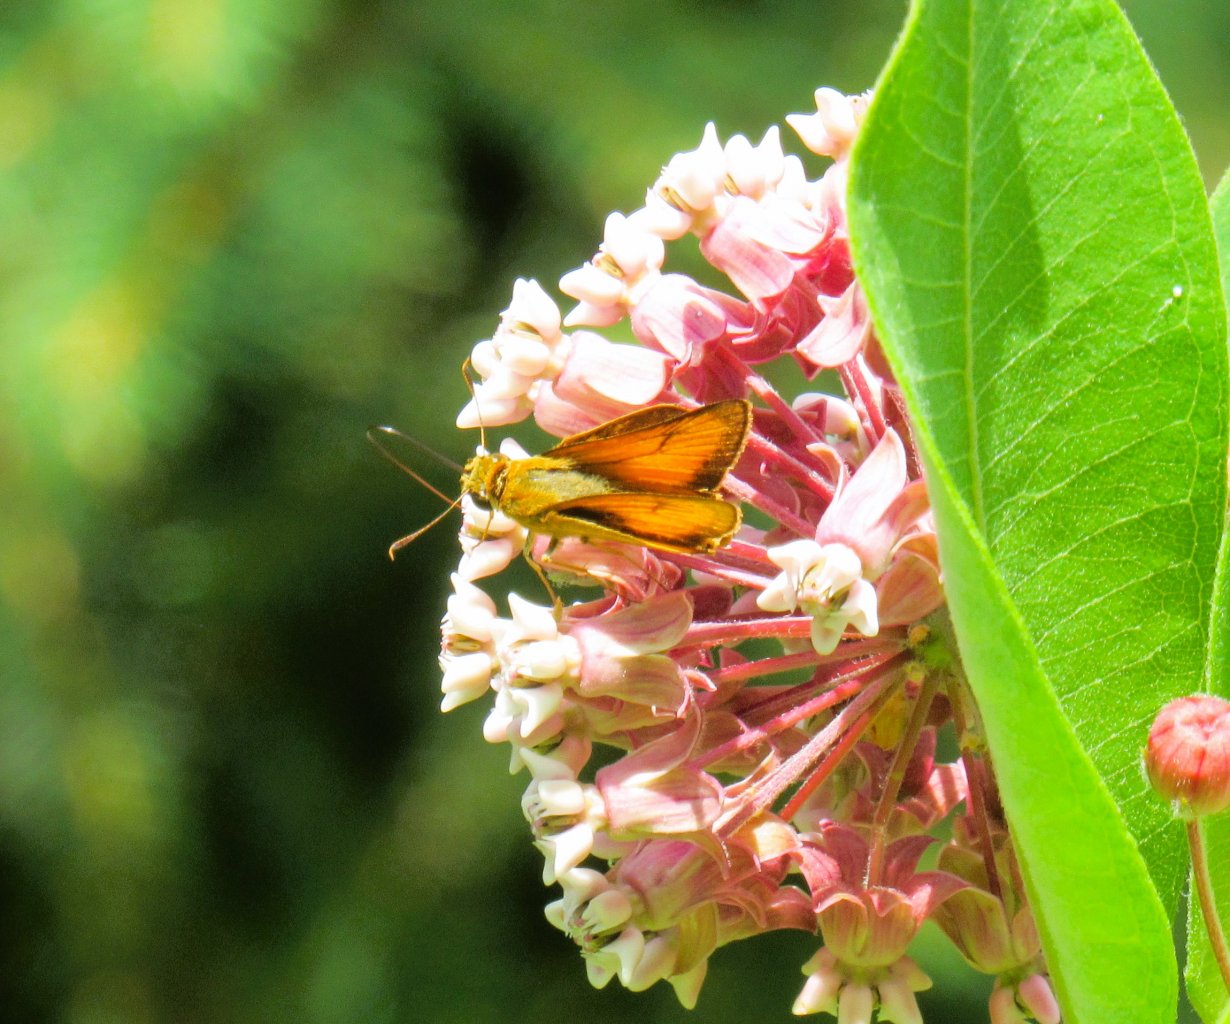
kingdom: Animalia
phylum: Arthropoda
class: Insecta
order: Lepidoptera
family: Hesperiidae
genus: Atrytone
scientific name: Atrytone delaware
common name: Delaware Skipper
